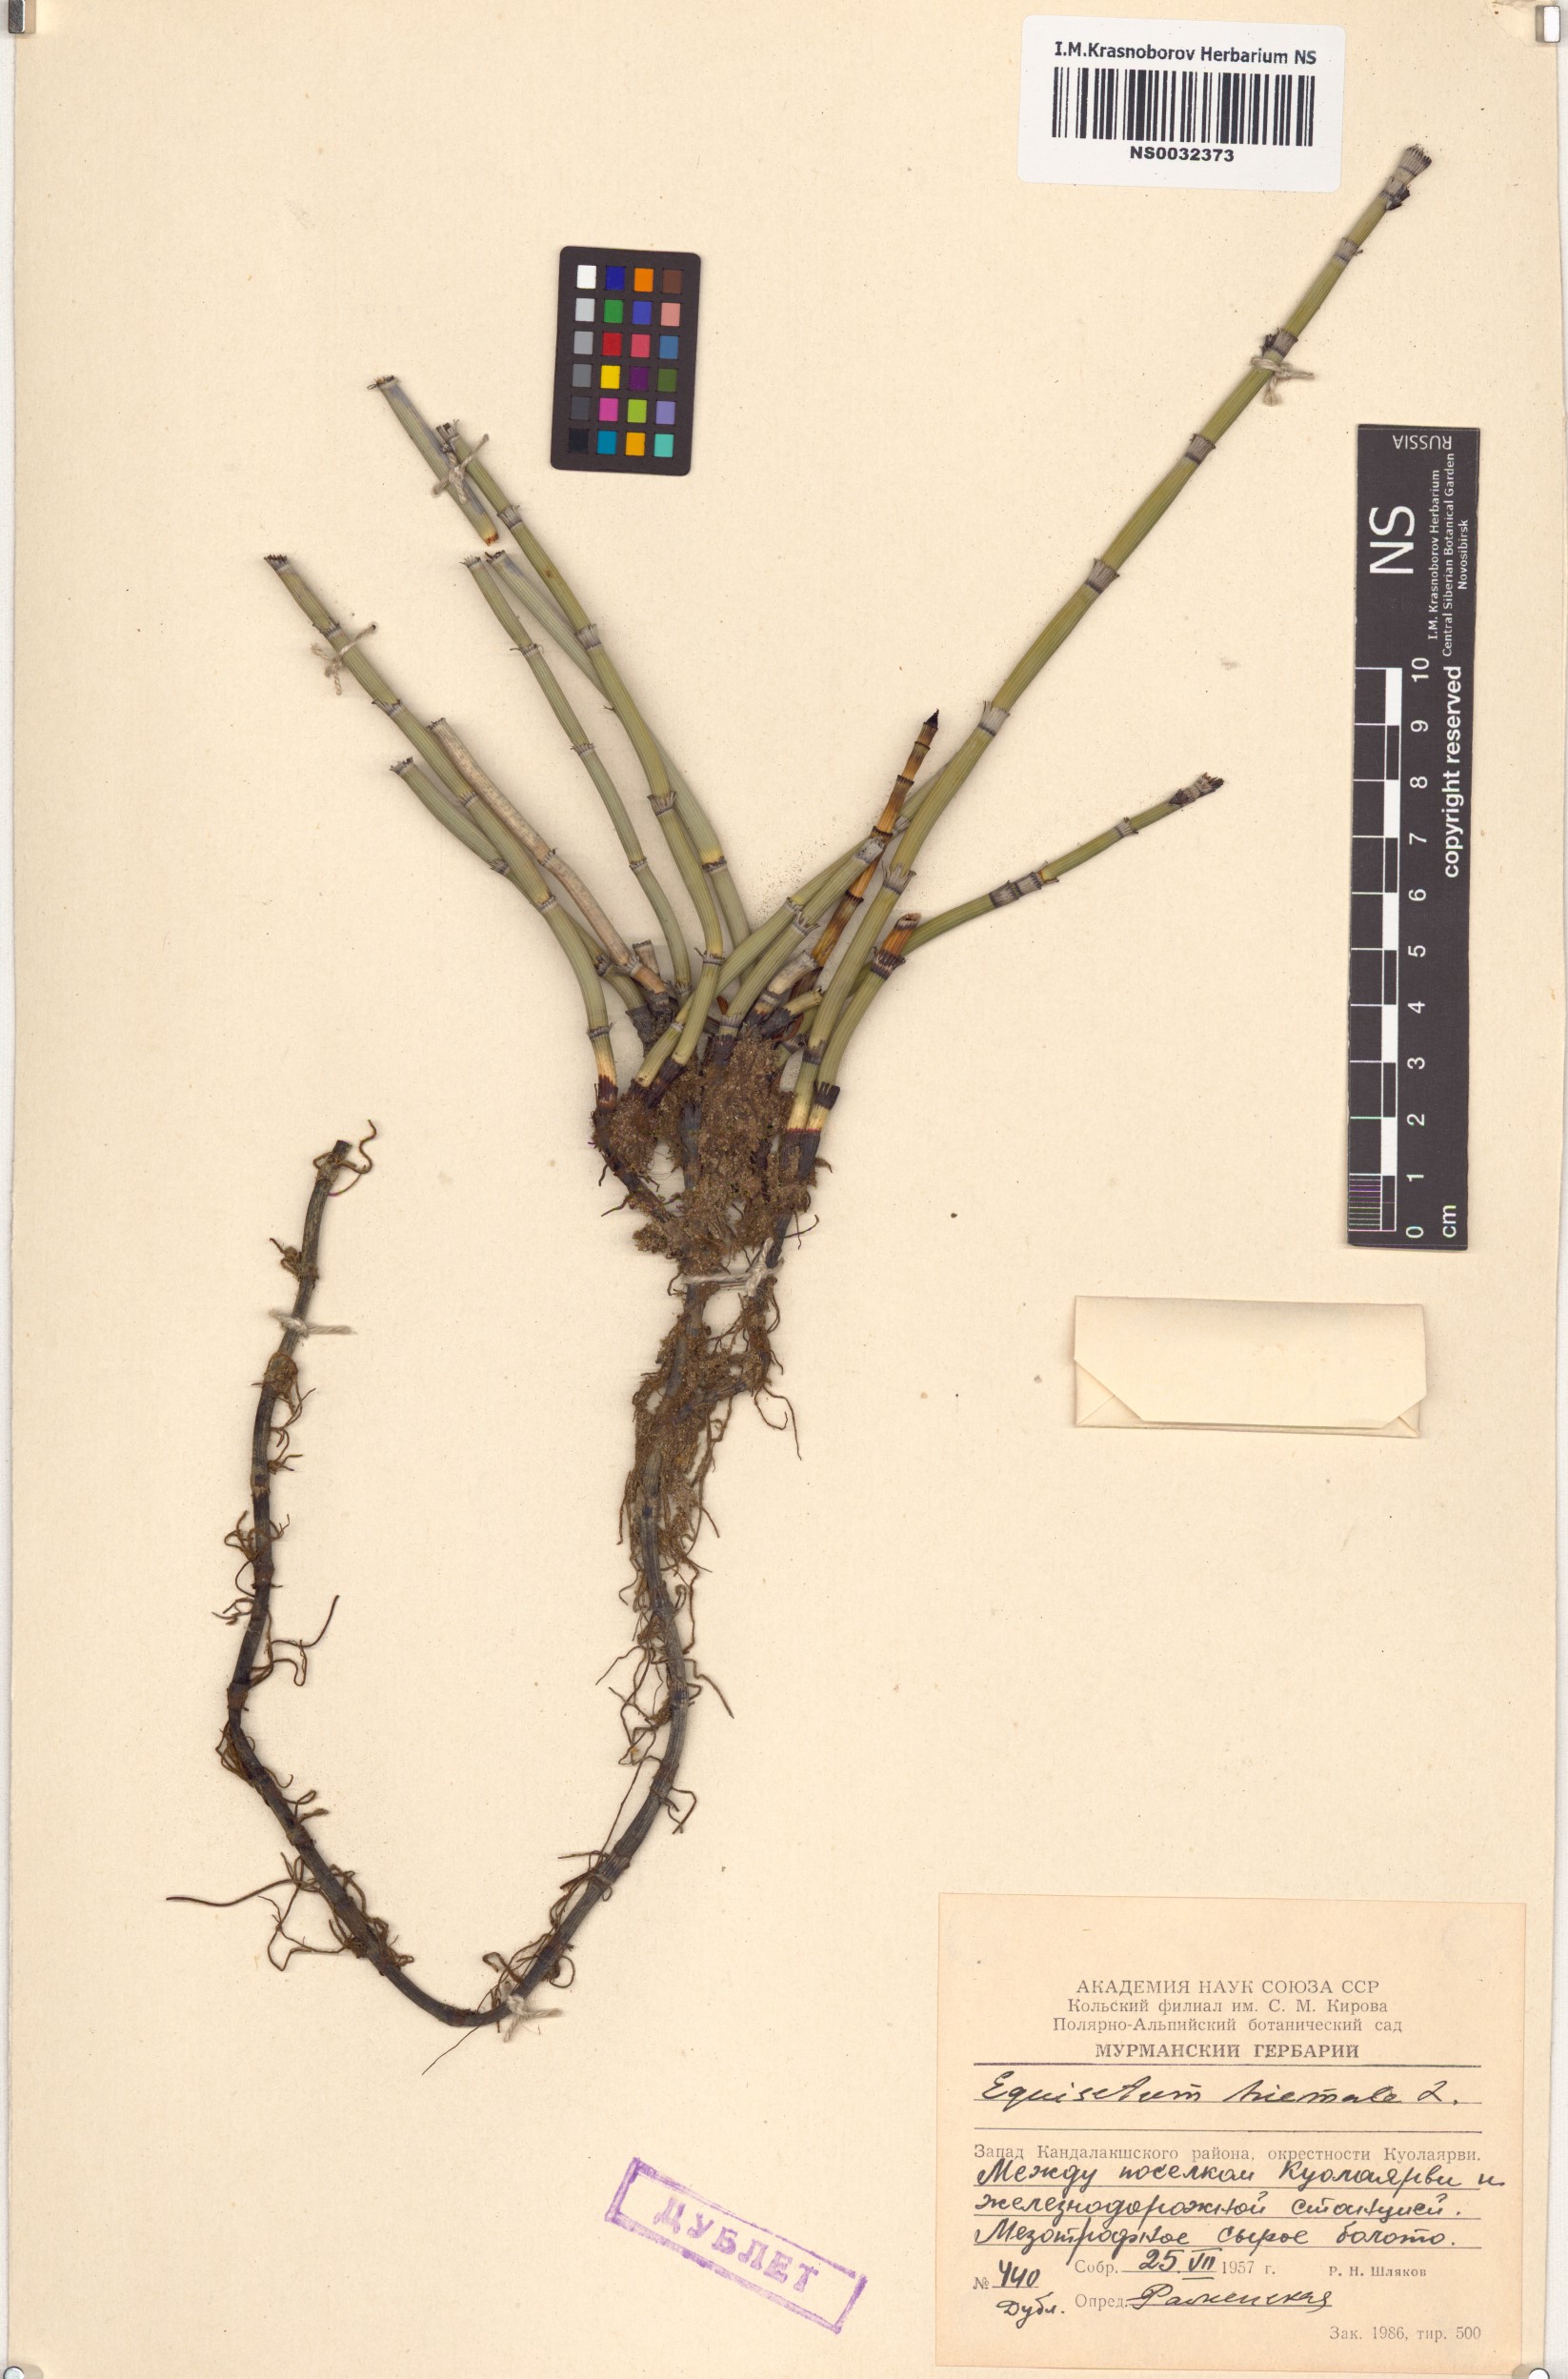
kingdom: Plantae
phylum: Tracheophyta
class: Polypodiopsida
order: Equisetales
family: Equisetaceae
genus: Equisetum
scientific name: Equisetum hyemale
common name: Rough horsetail
